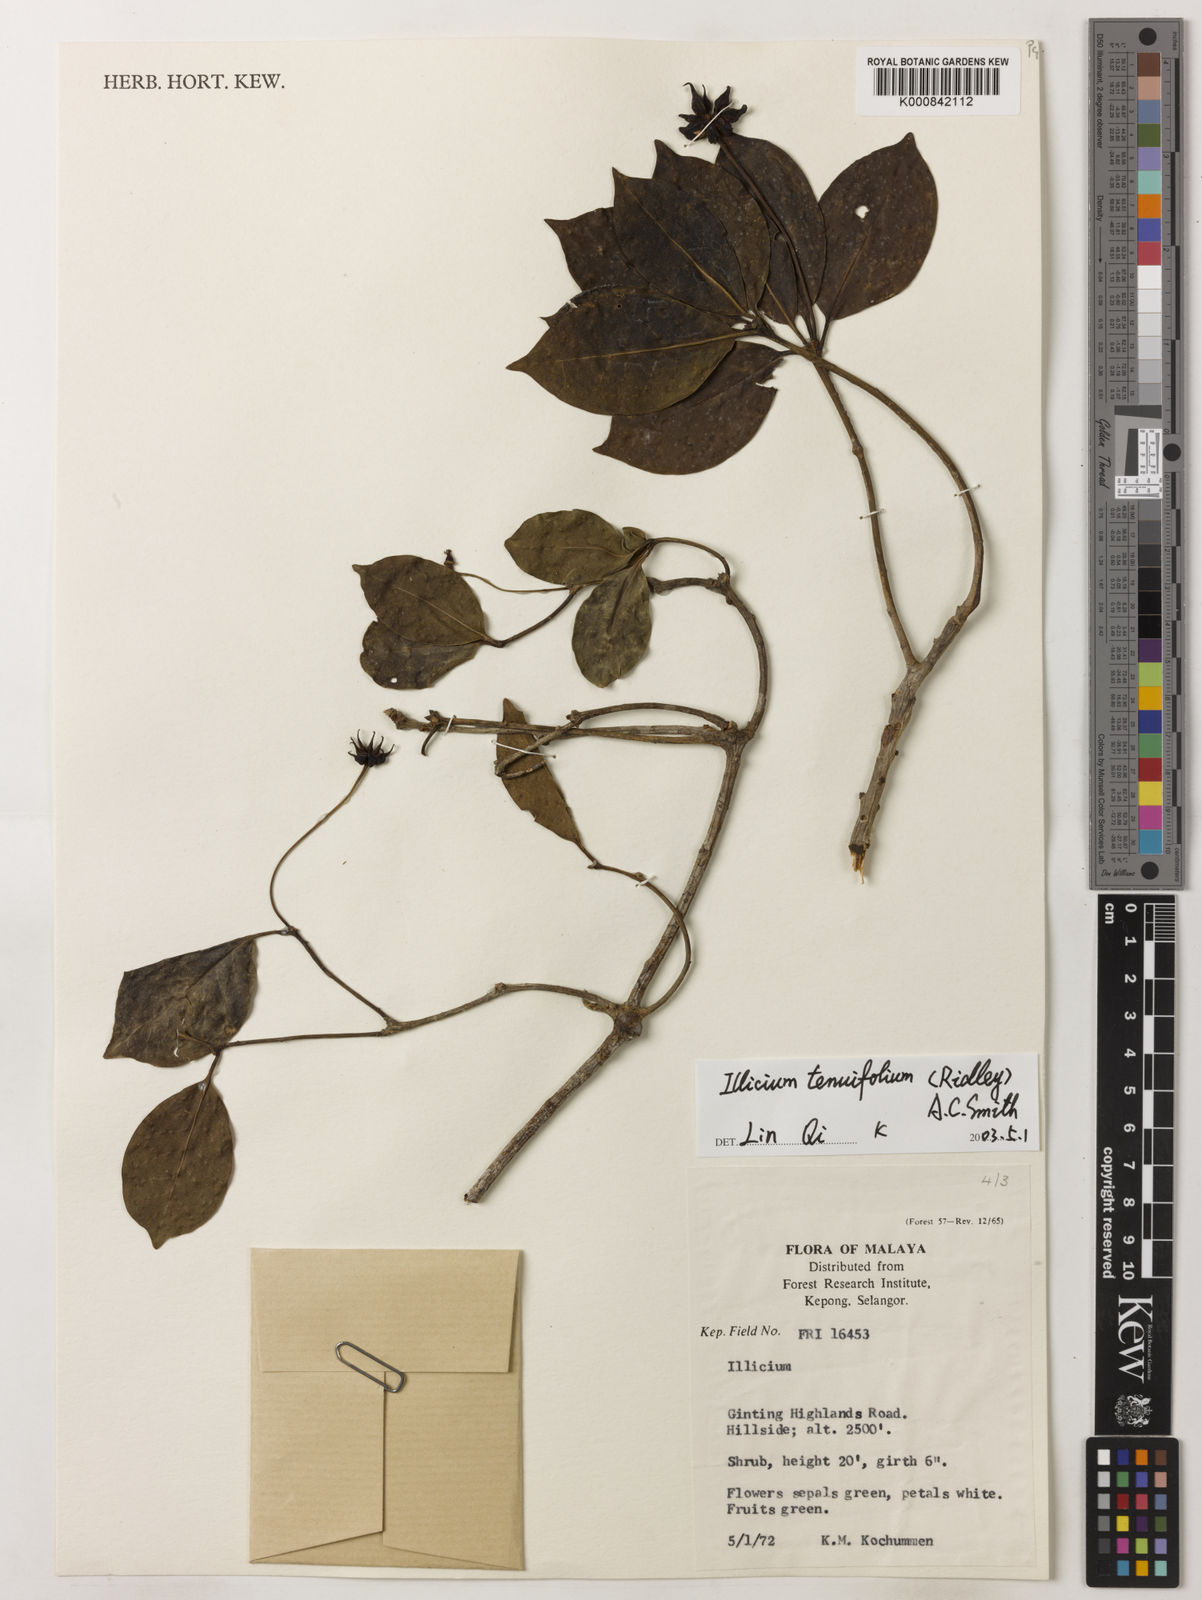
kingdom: Plantae
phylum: Tracheophyta
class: Magnoliopsida
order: Austrobaileyales
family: Schisandraceae
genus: Illicium
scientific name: Illicium tenuifolium
